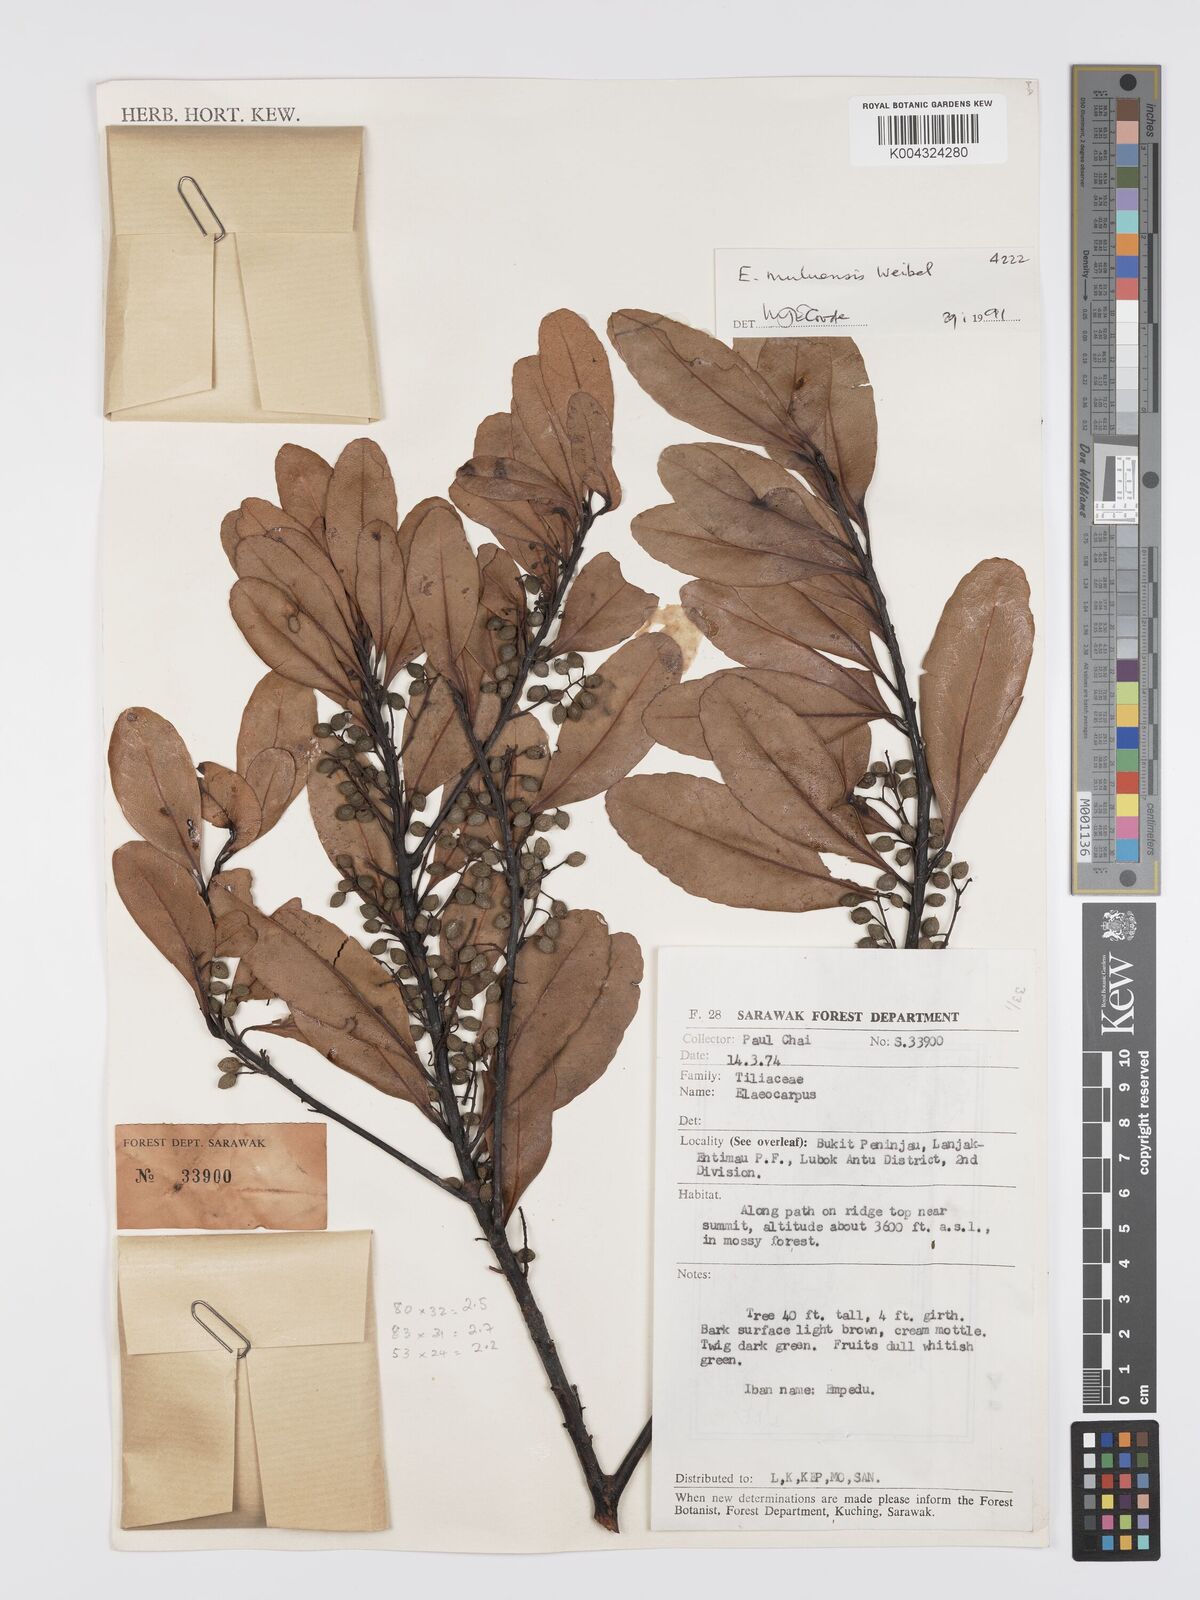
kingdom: Plantae
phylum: Tracheophyta
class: Magnoliopsida
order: Oxalidales
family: Elaeocarpaceae
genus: Elaeocarpus
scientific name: Elaeocarpus muluensis
